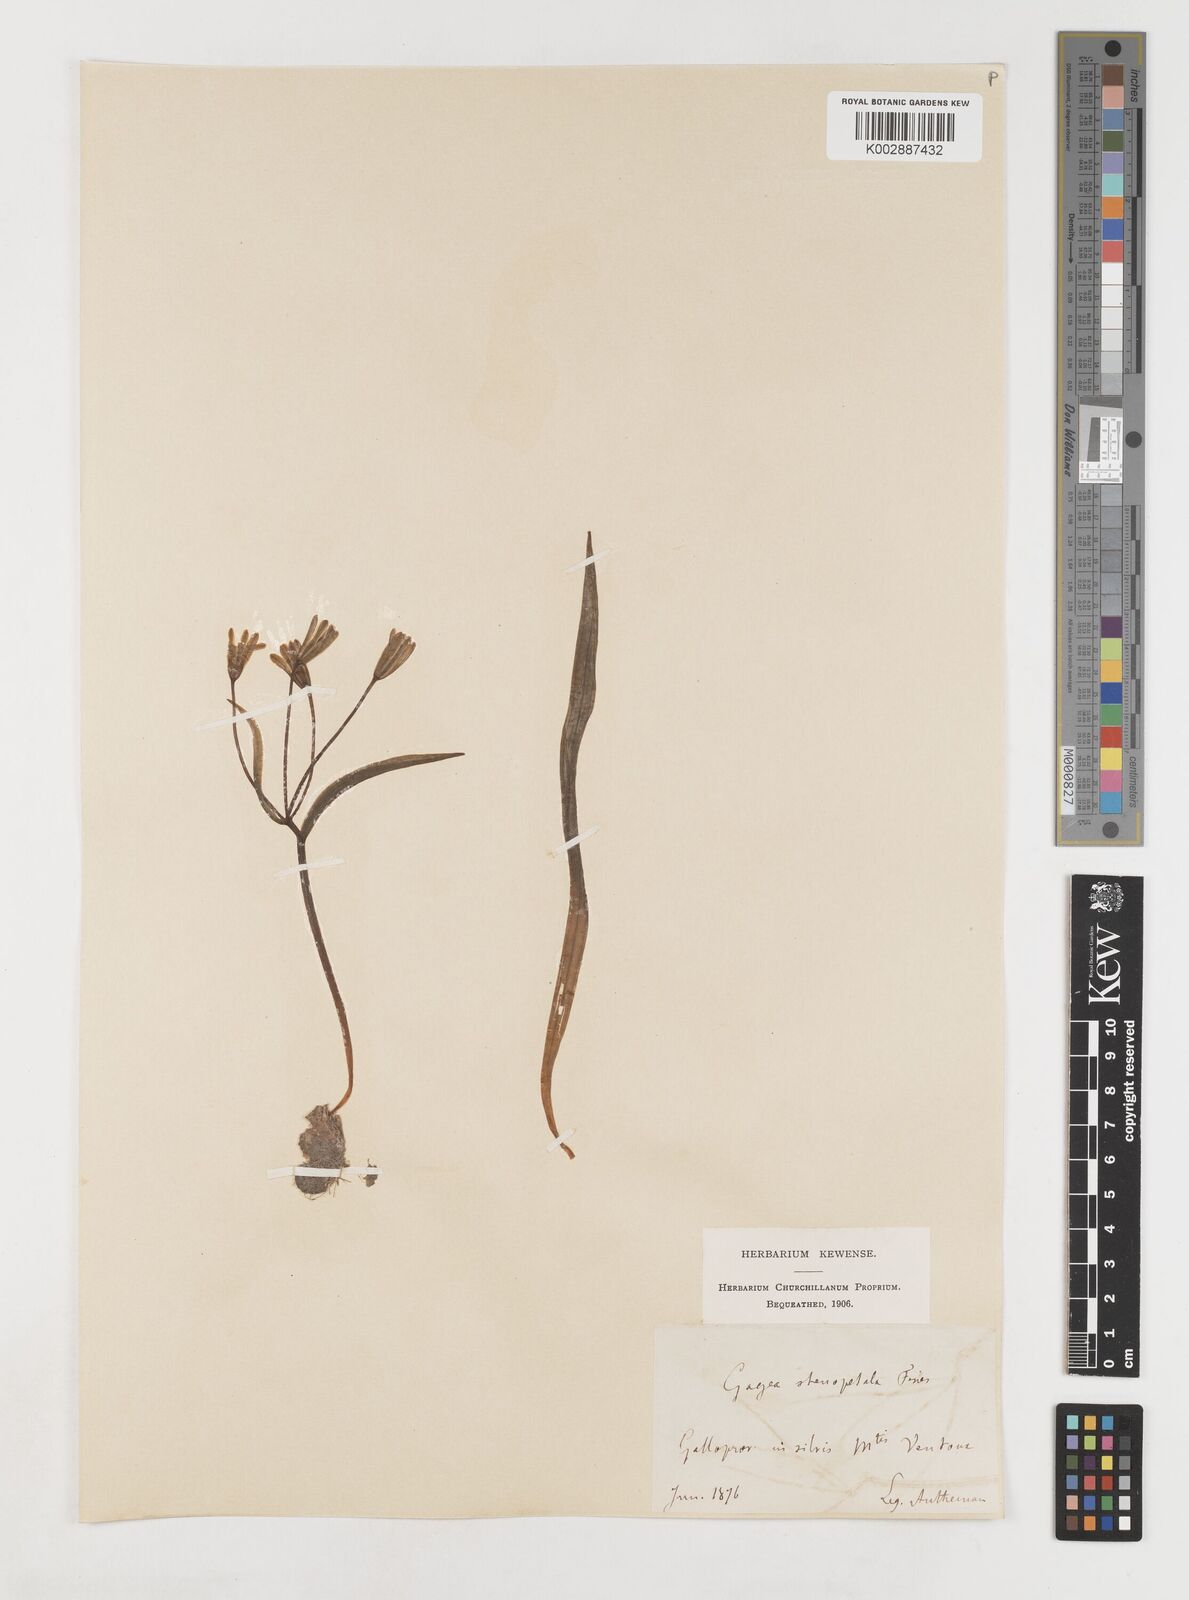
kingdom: Plantae
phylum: Tracheophyta
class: Liliopsida
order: Liliales
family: Liliaceae
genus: Gagea
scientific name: Gagea pratensis
